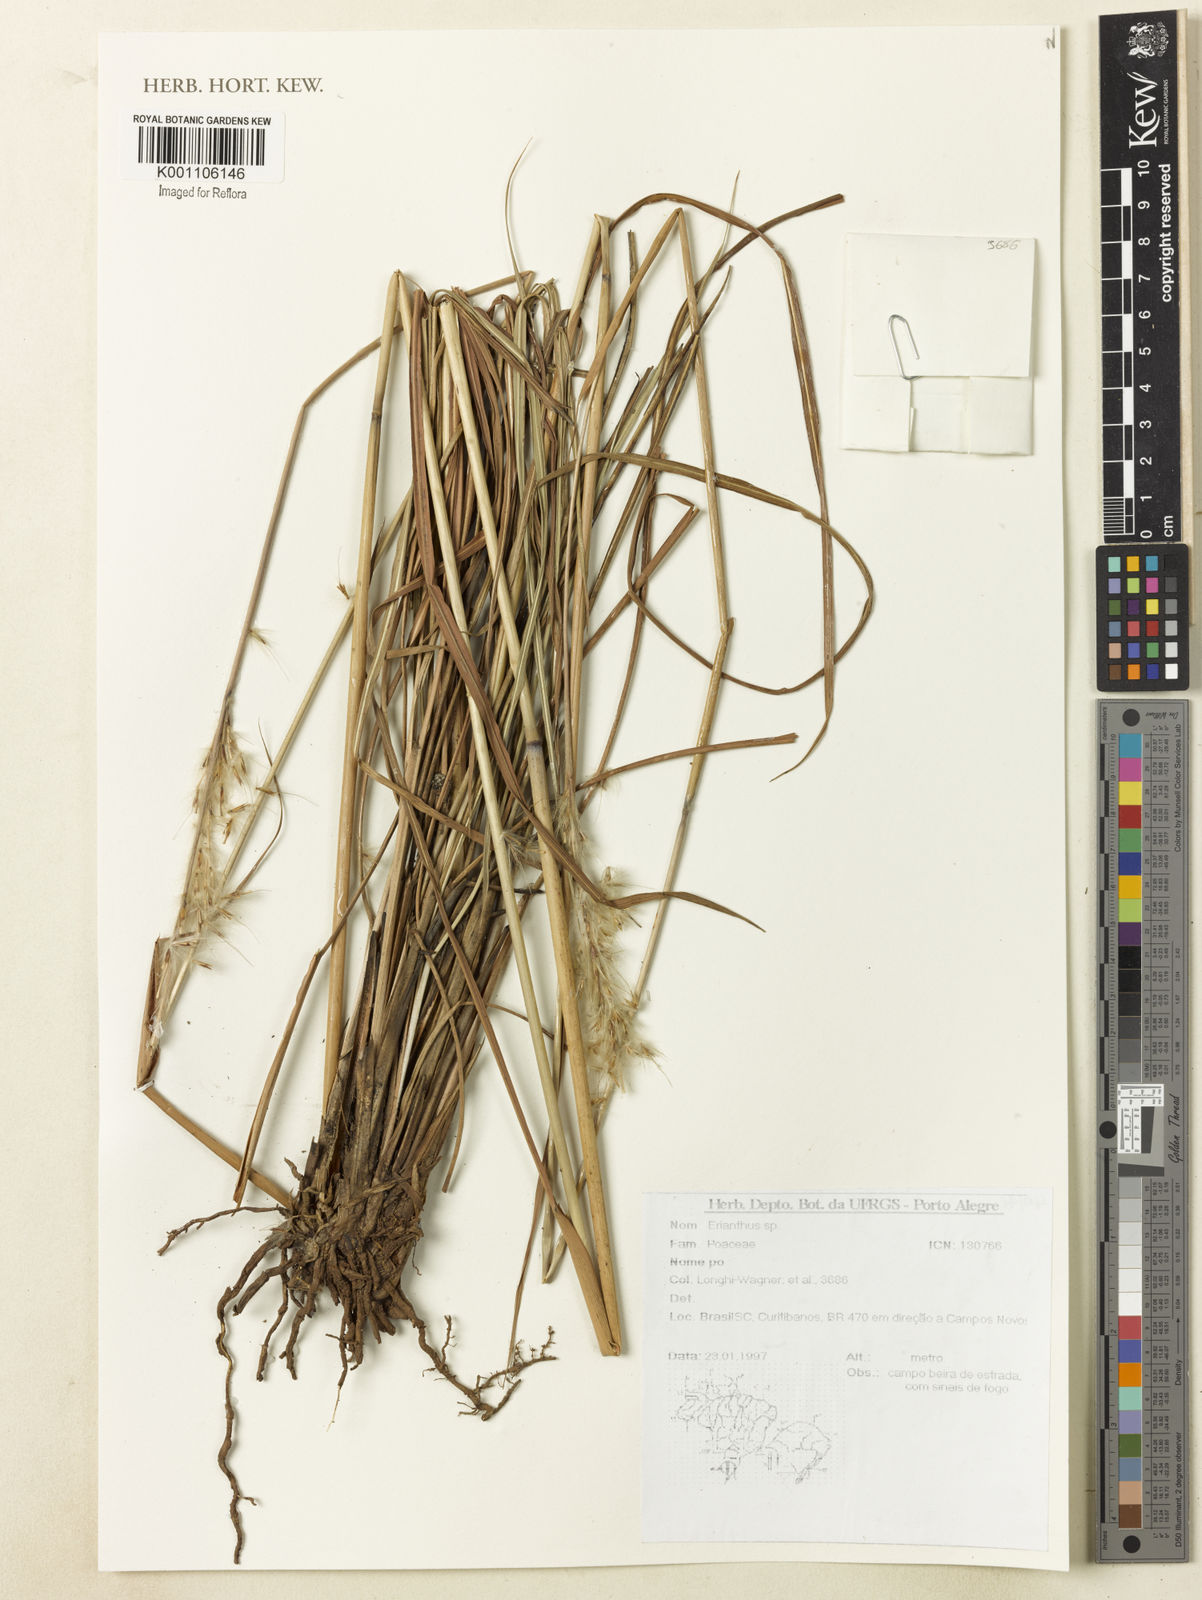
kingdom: Plantae
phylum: Tracheophyta
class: Liliopsida
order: Poales
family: Poaceae
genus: Saccharum
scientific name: Saccharum
